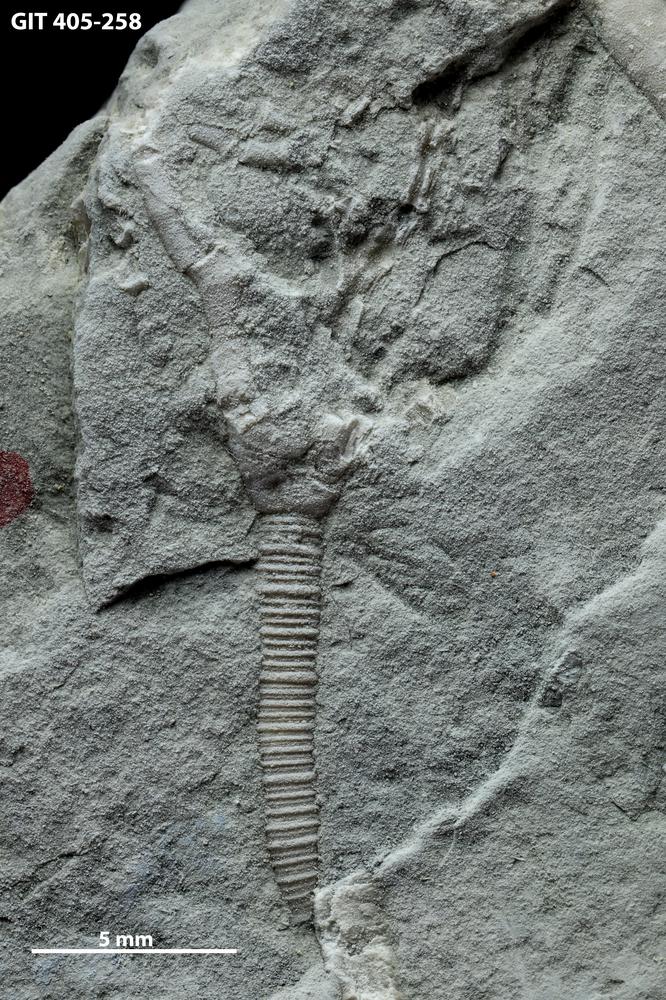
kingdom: Animalia
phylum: Echinodermata
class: Crinoidea
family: Iocrinidae
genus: Tartucrinus
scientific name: Tartucrinus
